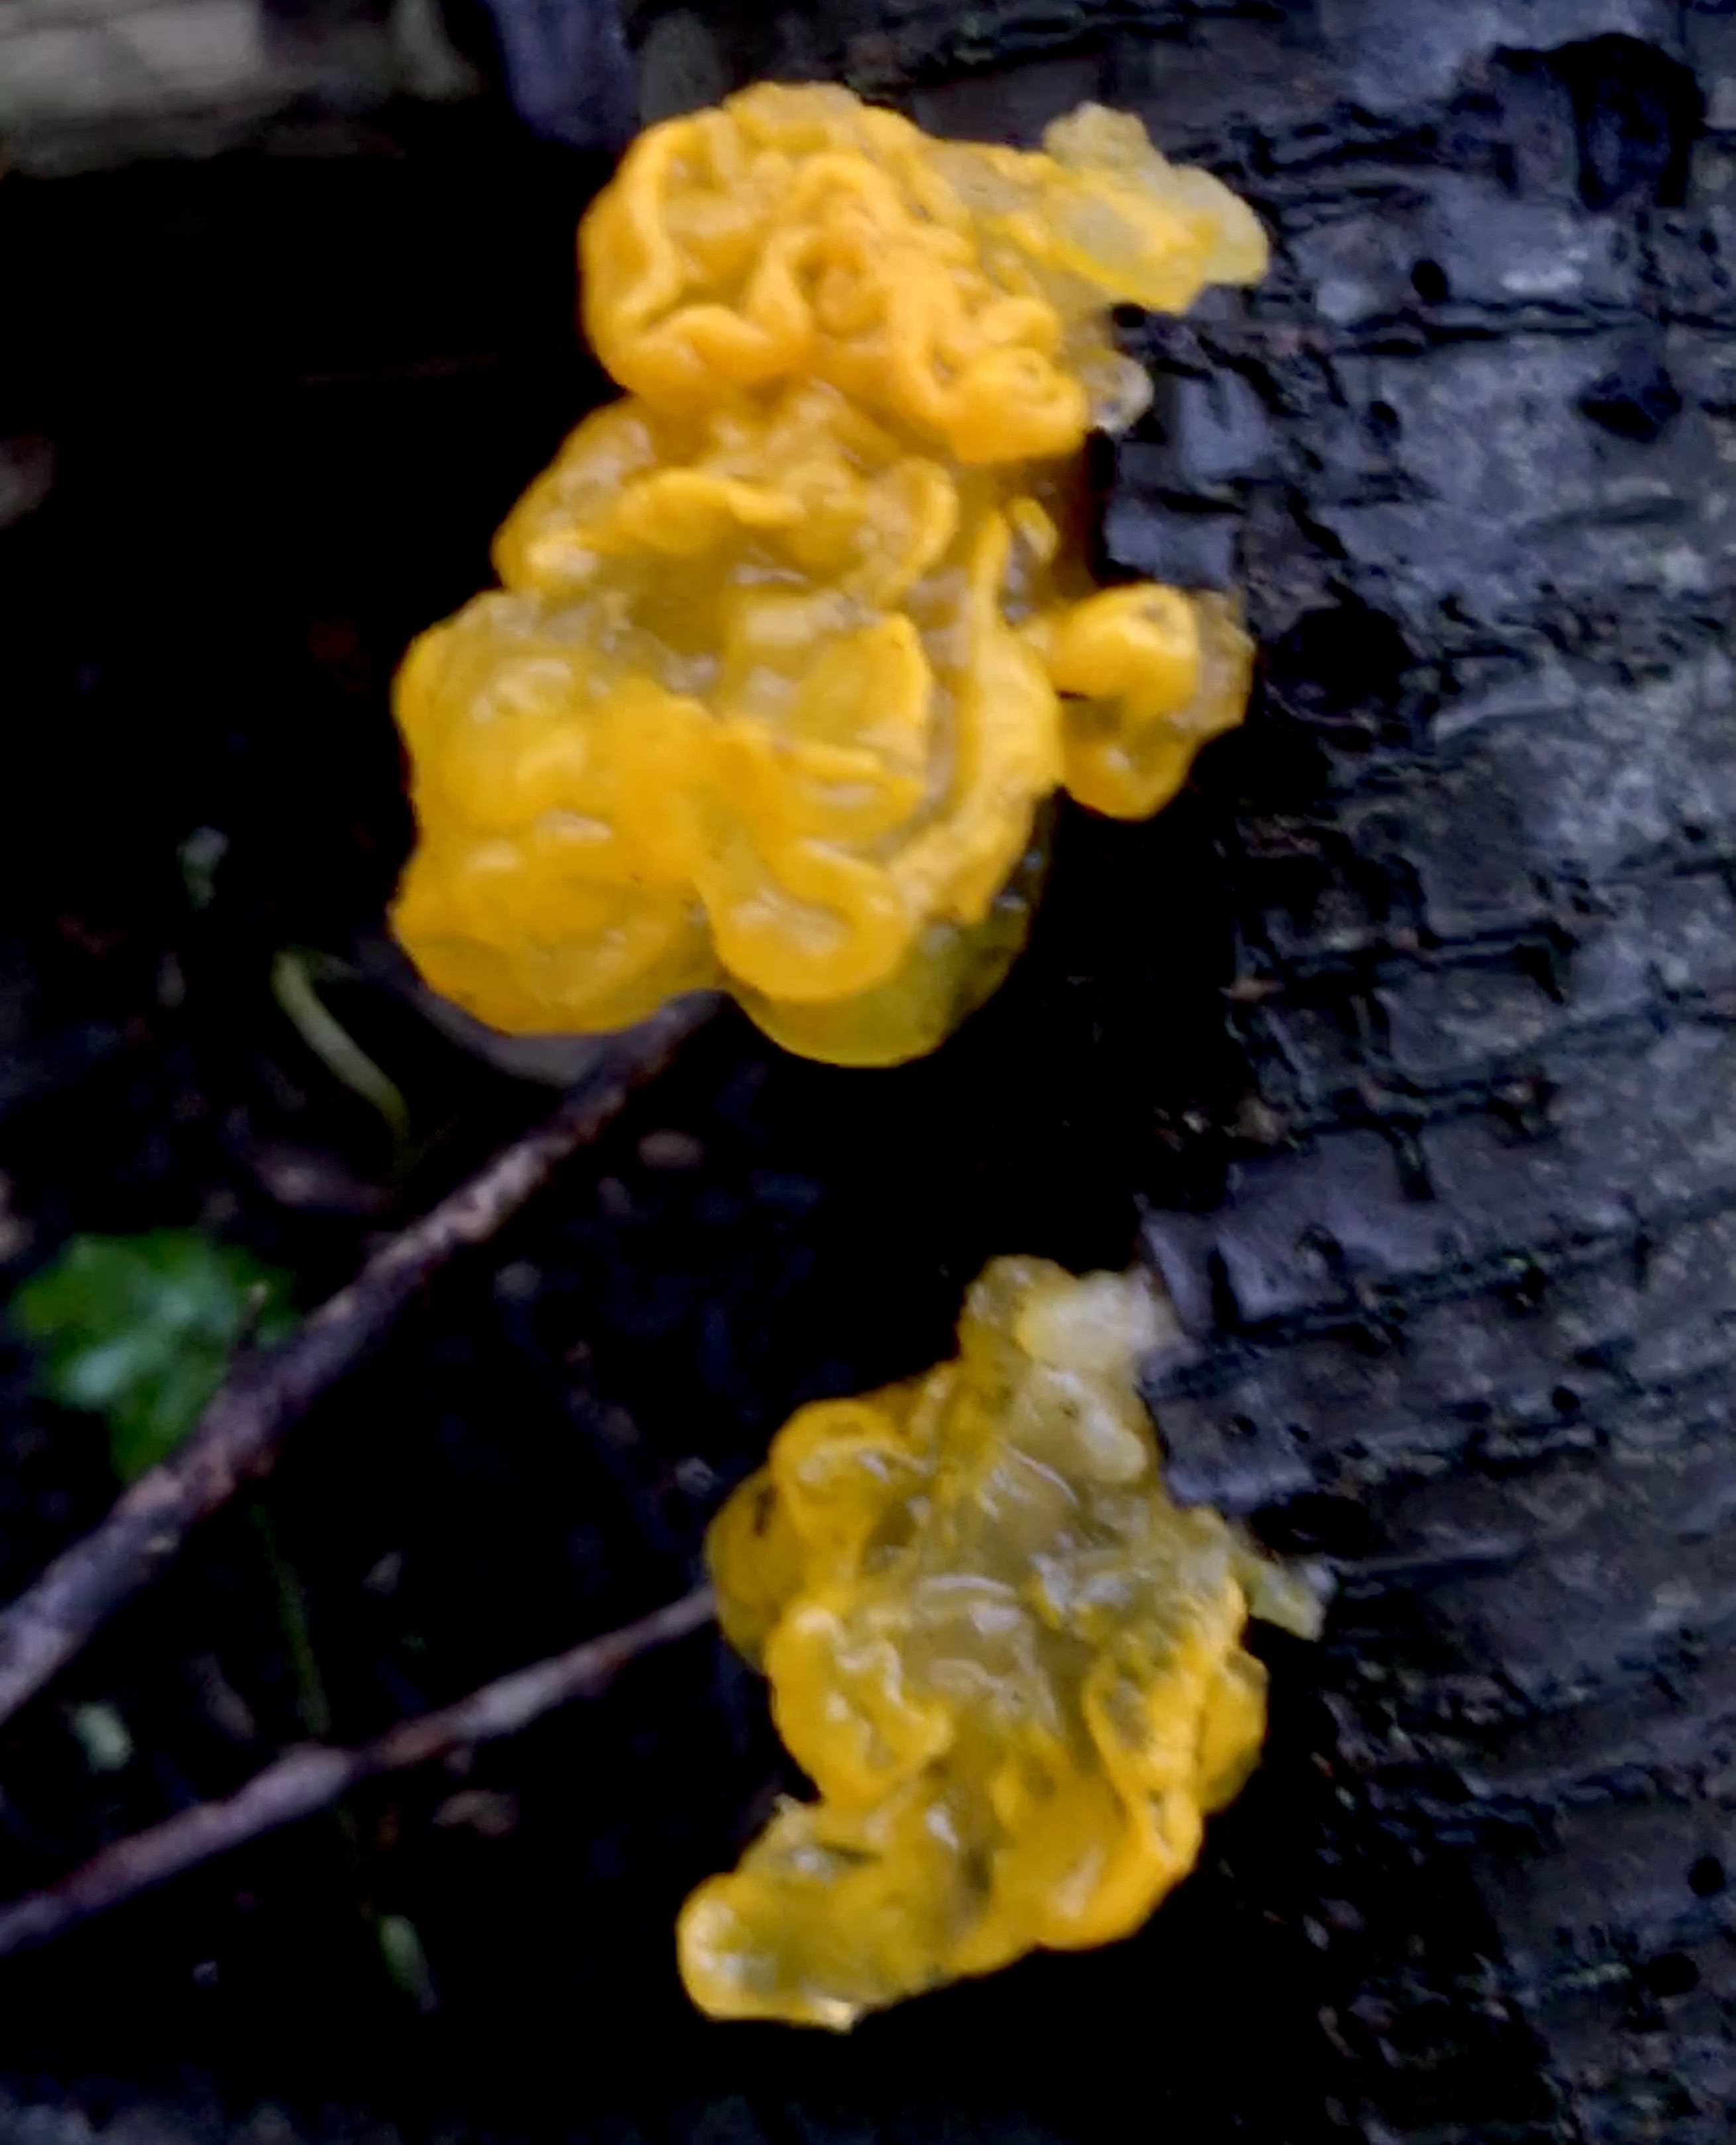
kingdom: Fungi
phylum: Basidiomycota
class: Tremellomycetes
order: Tremellales
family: Tremellaceae
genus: Tremella
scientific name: Tremella mesenterica
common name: gul bævresvamp
